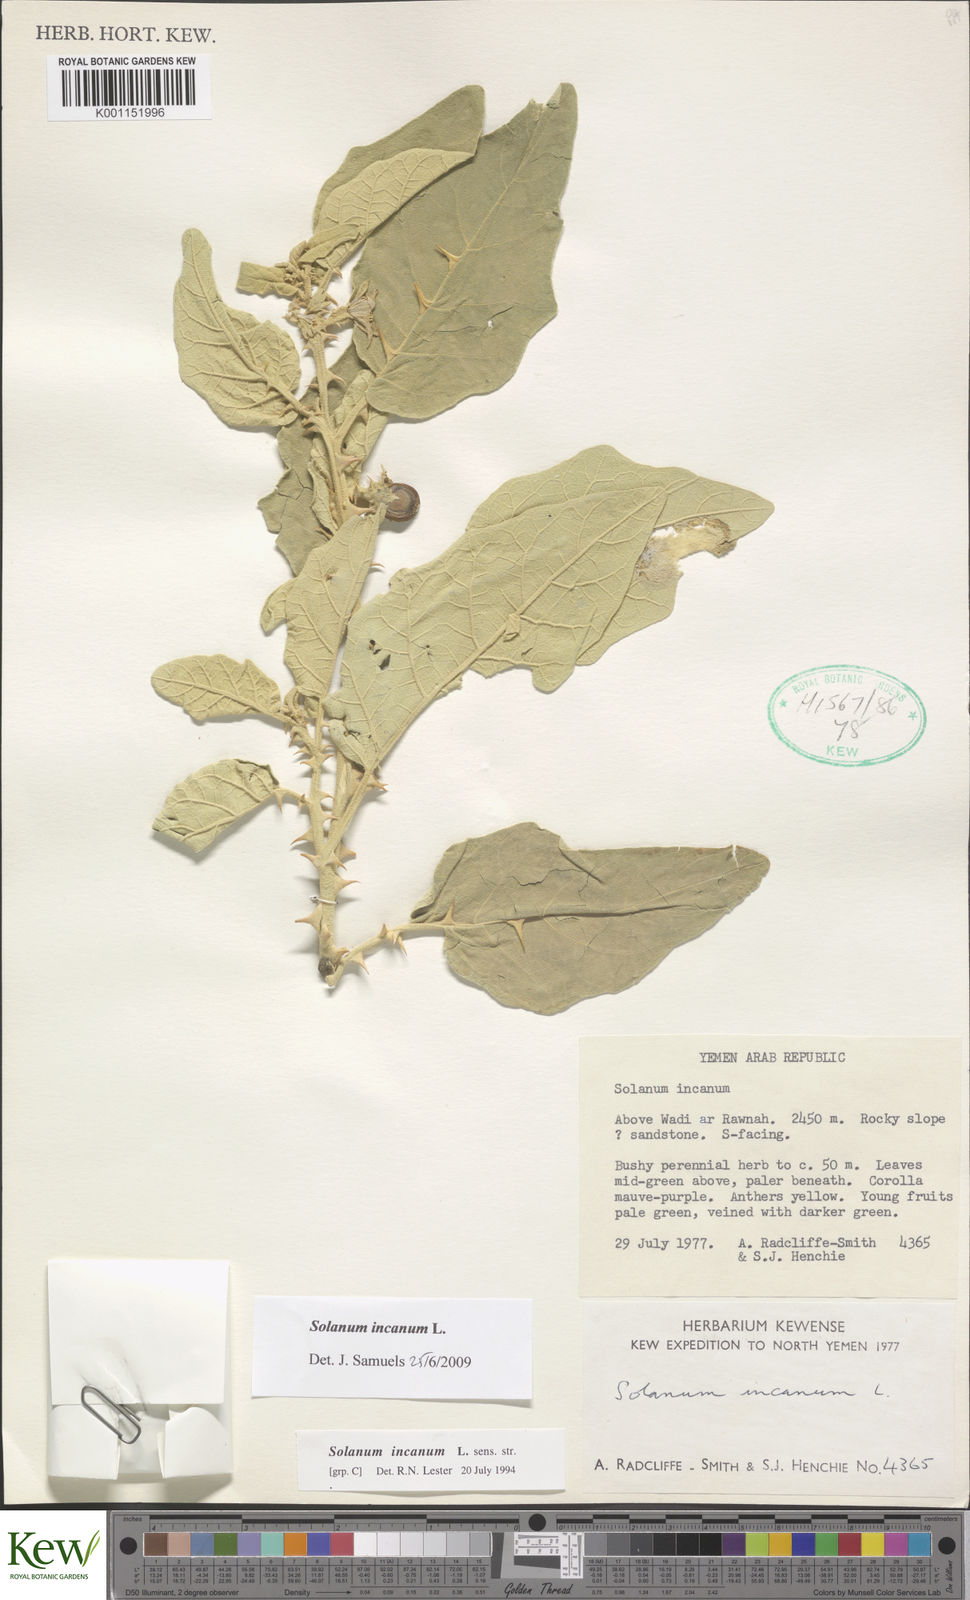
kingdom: Plantae
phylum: Tracheophyta
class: Magnoliopsida
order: Solanales
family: Solanaceae
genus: Solanum
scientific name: Solanum incanum
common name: Bitter apple
